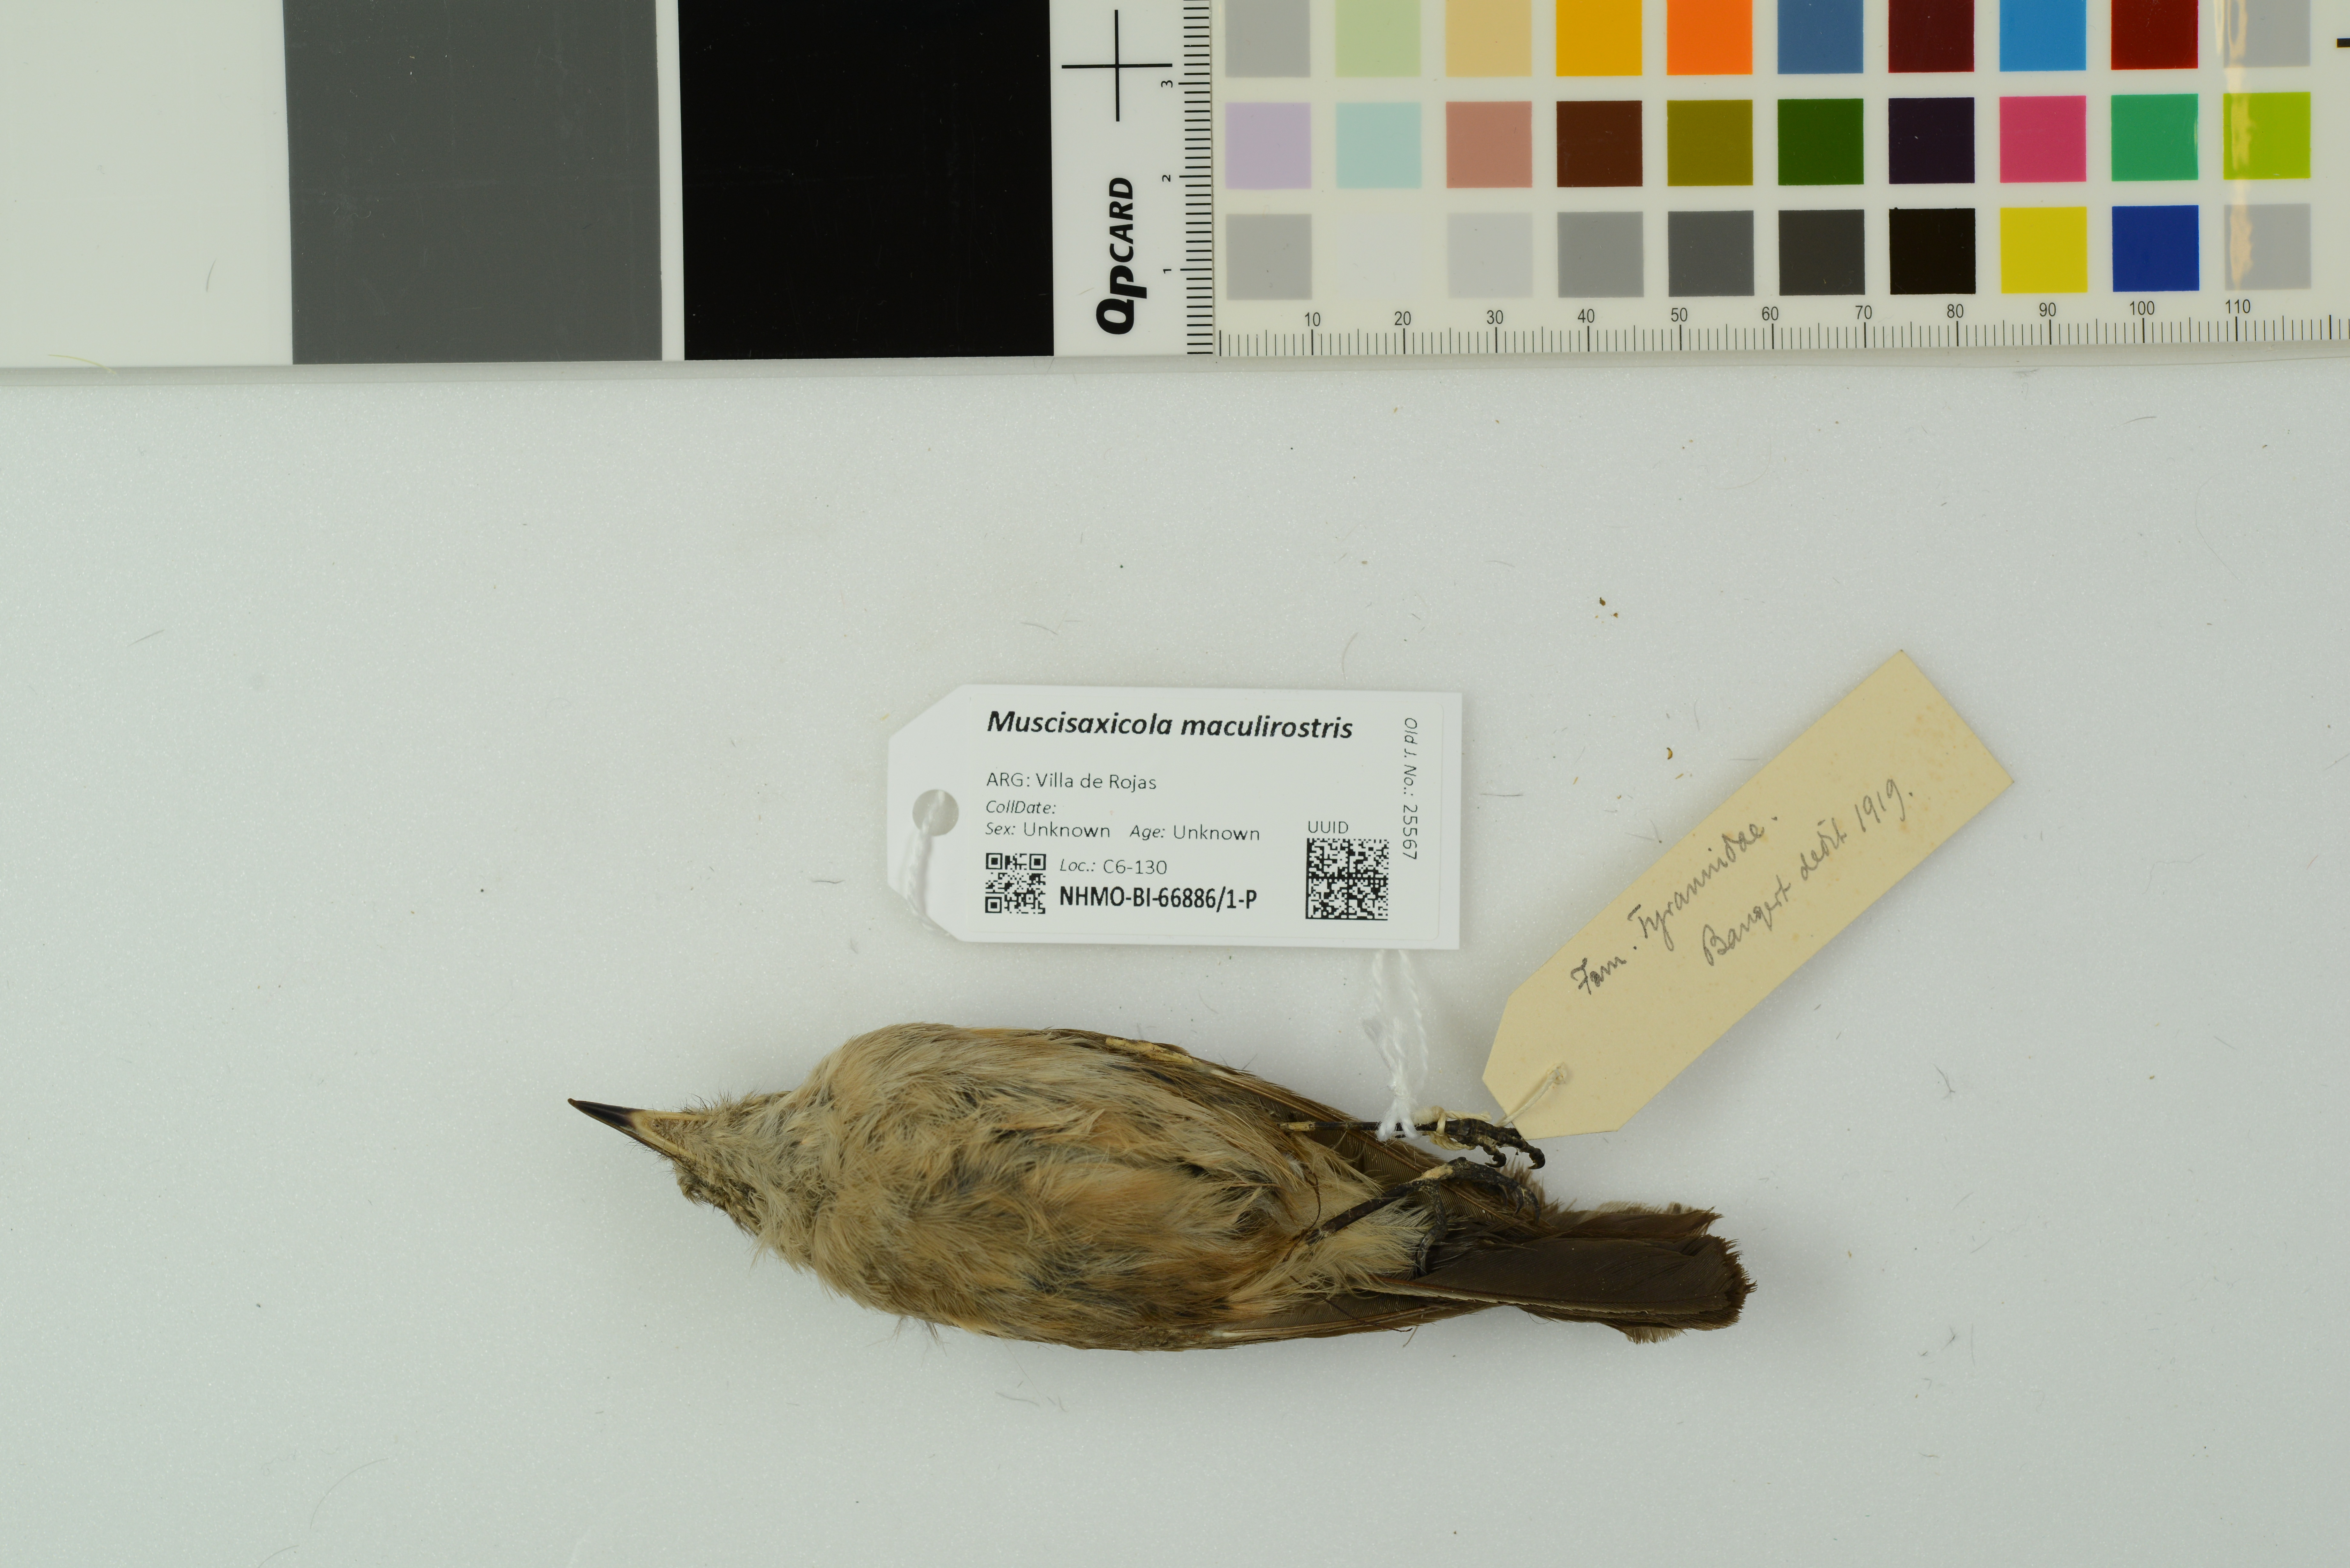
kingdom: Animalia
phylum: Chordata
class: Aves
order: Passeriformes
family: Tyrannidae
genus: Muscisaxicola
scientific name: Muscisaxicola maculirostris
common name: Spot-billed ground tyrant
